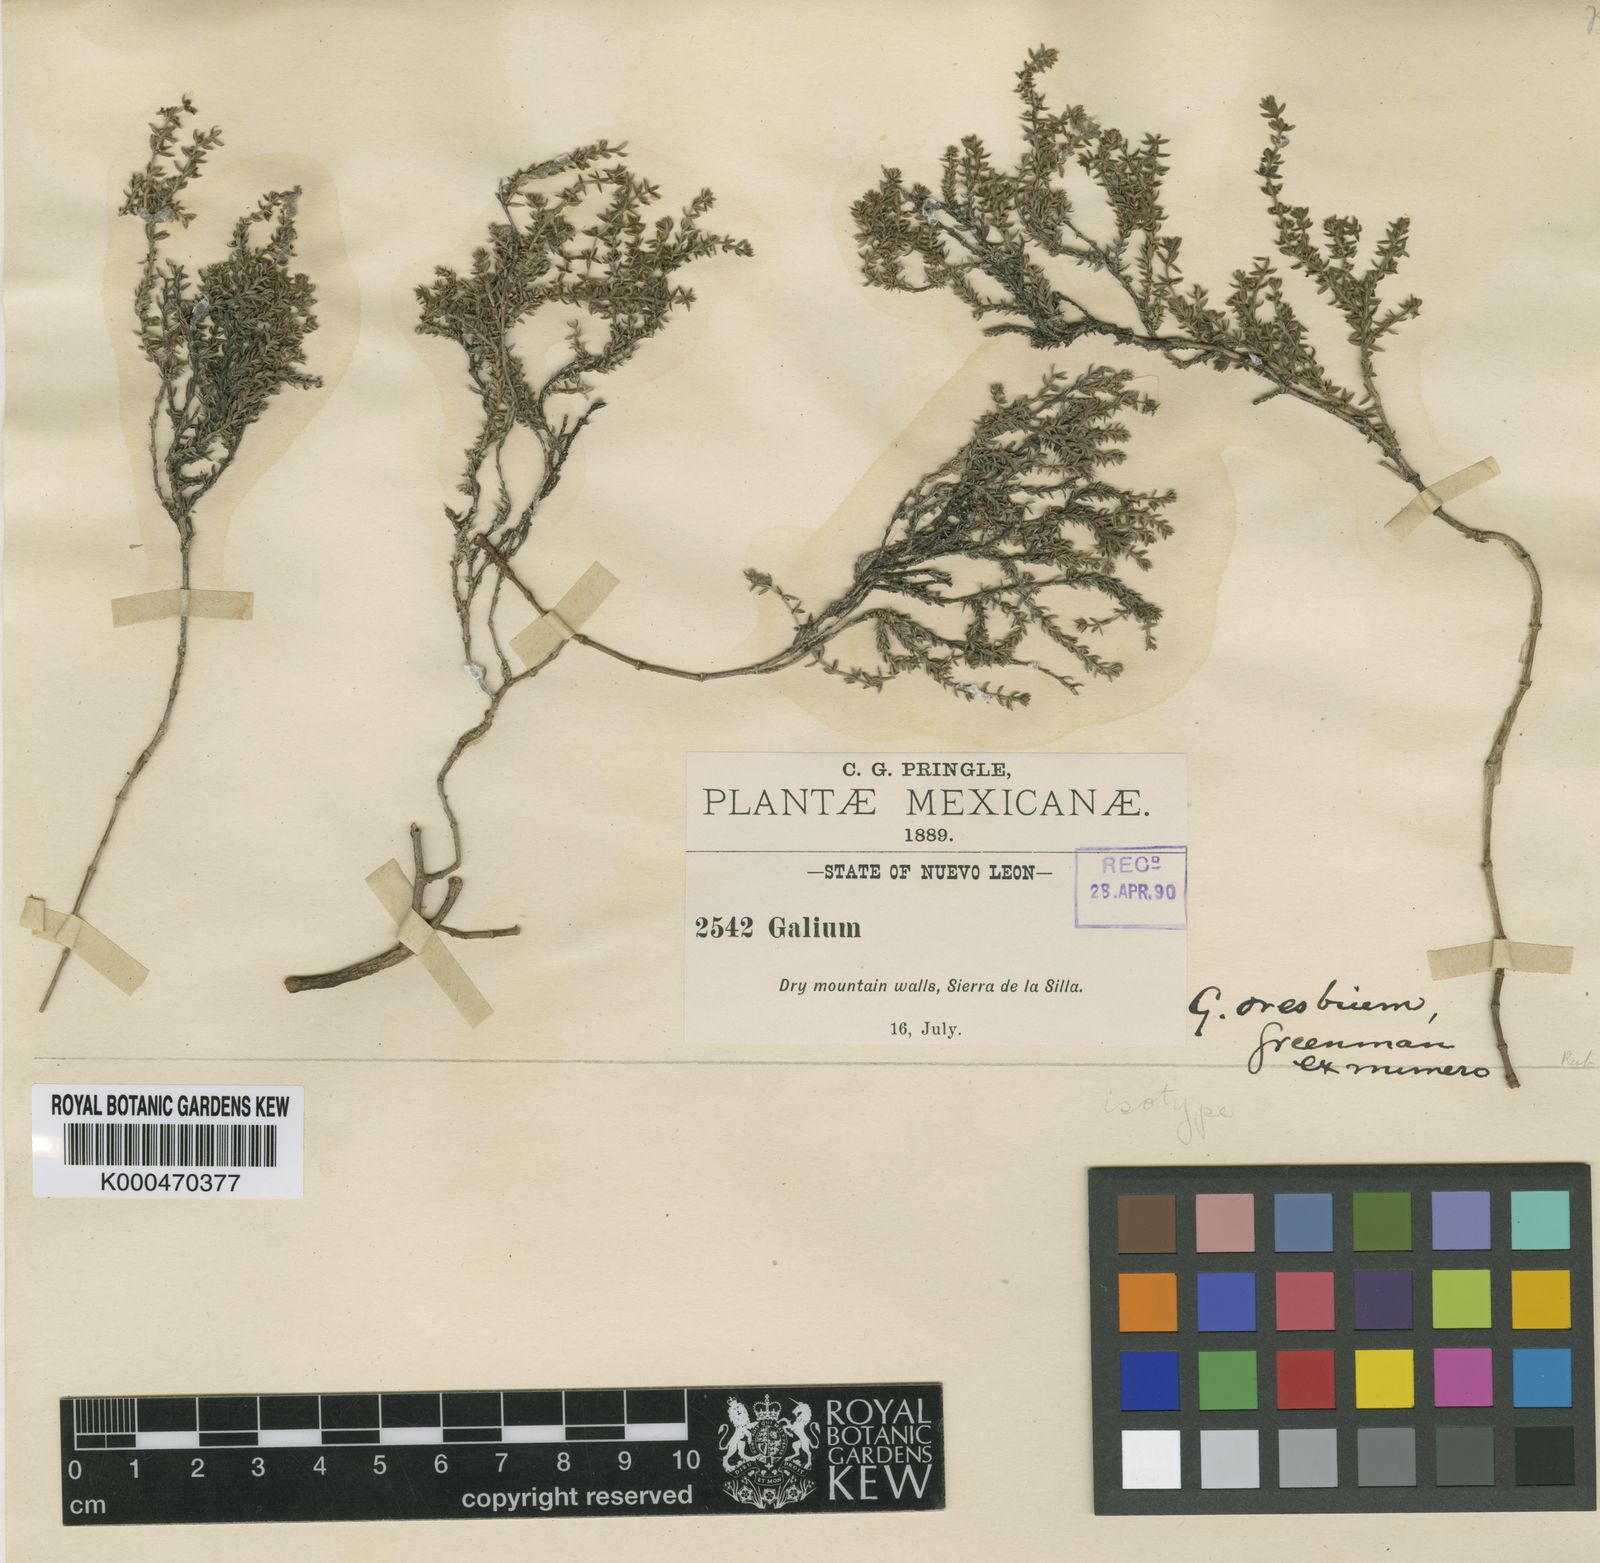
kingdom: Plantae
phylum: Tracheophyta
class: Magnoliopsida
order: Gentianales
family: Rubiaceae
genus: Galium
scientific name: Galium oresbium
